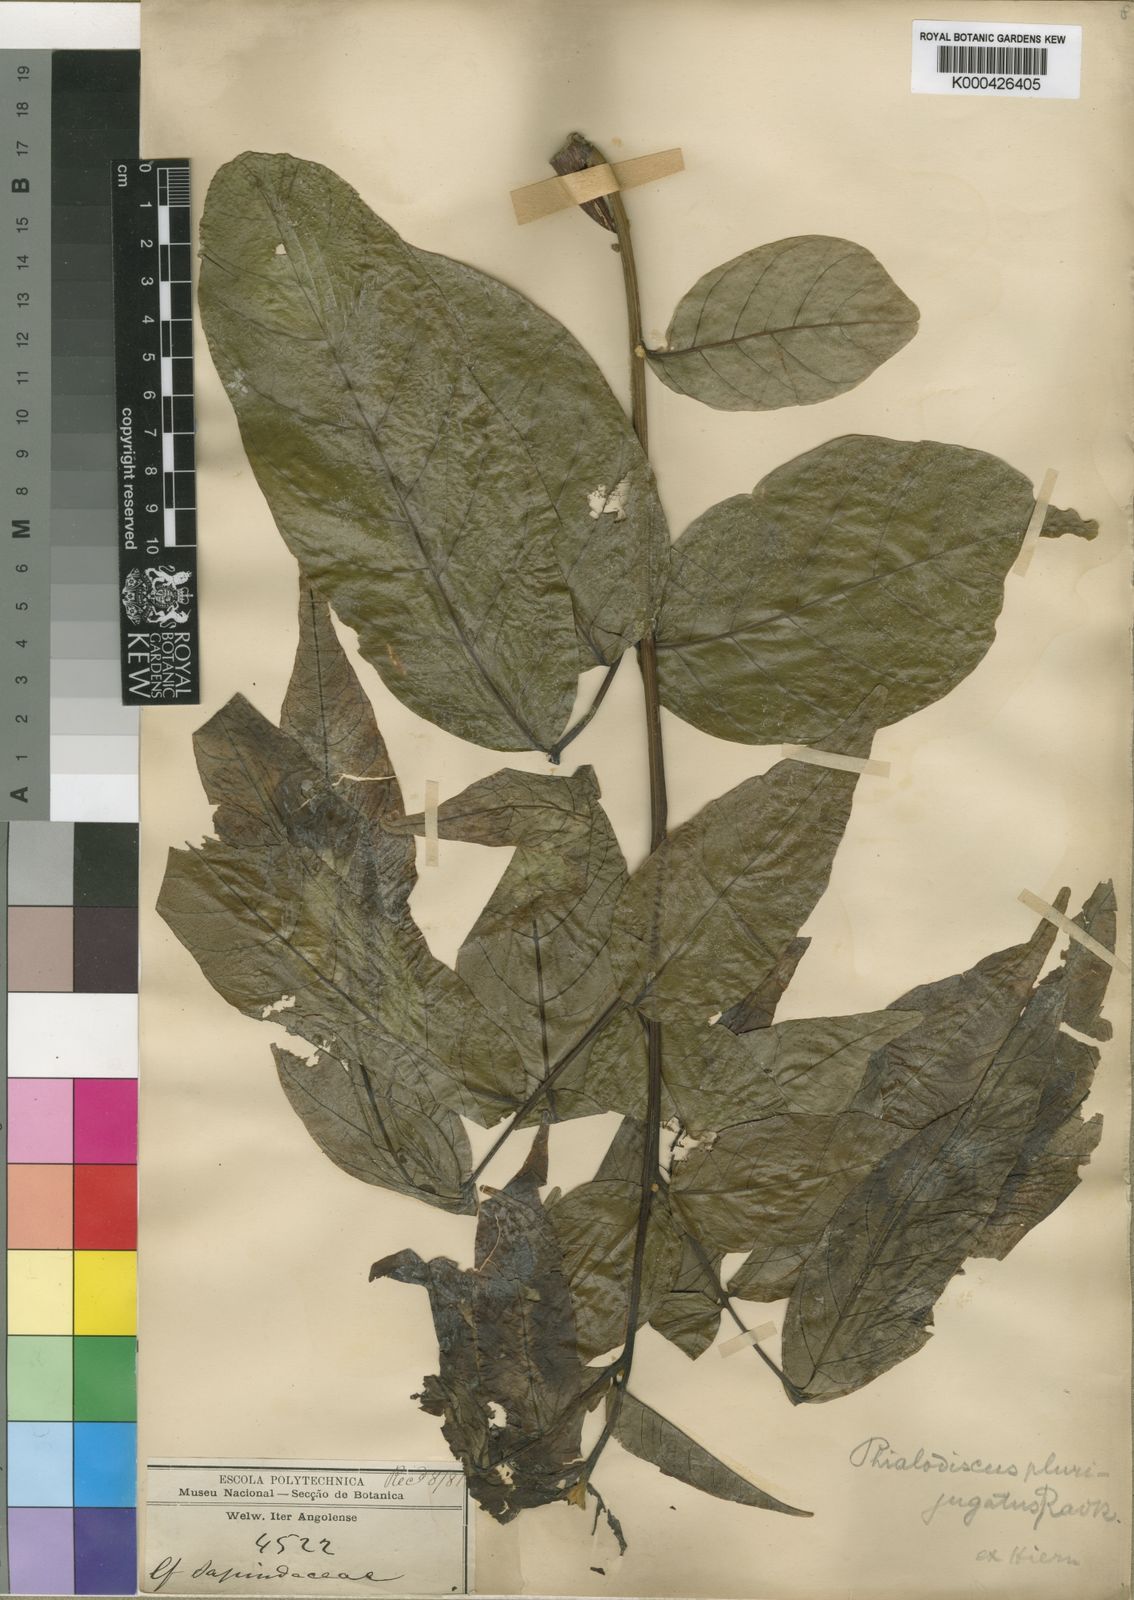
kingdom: Plantae
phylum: Tracheophyta
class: Magnoliopsida
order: Sapindales
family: Sapindaceae
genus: Blighia
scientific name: Blighia unijugata
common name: Triangle tops
